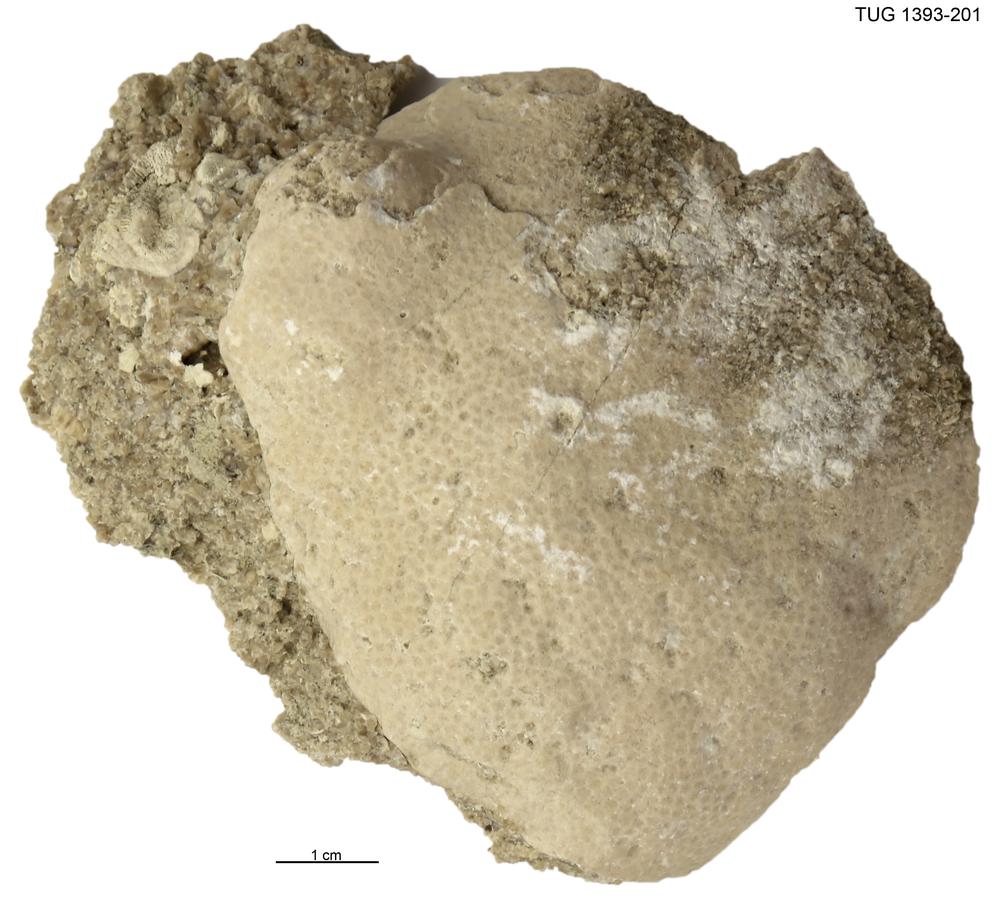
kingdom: Animalia
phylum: Cnidaria
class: Anthozoa
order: Heliolitina
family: Heliolitidae
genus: Heliolites
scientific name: Heliolites
